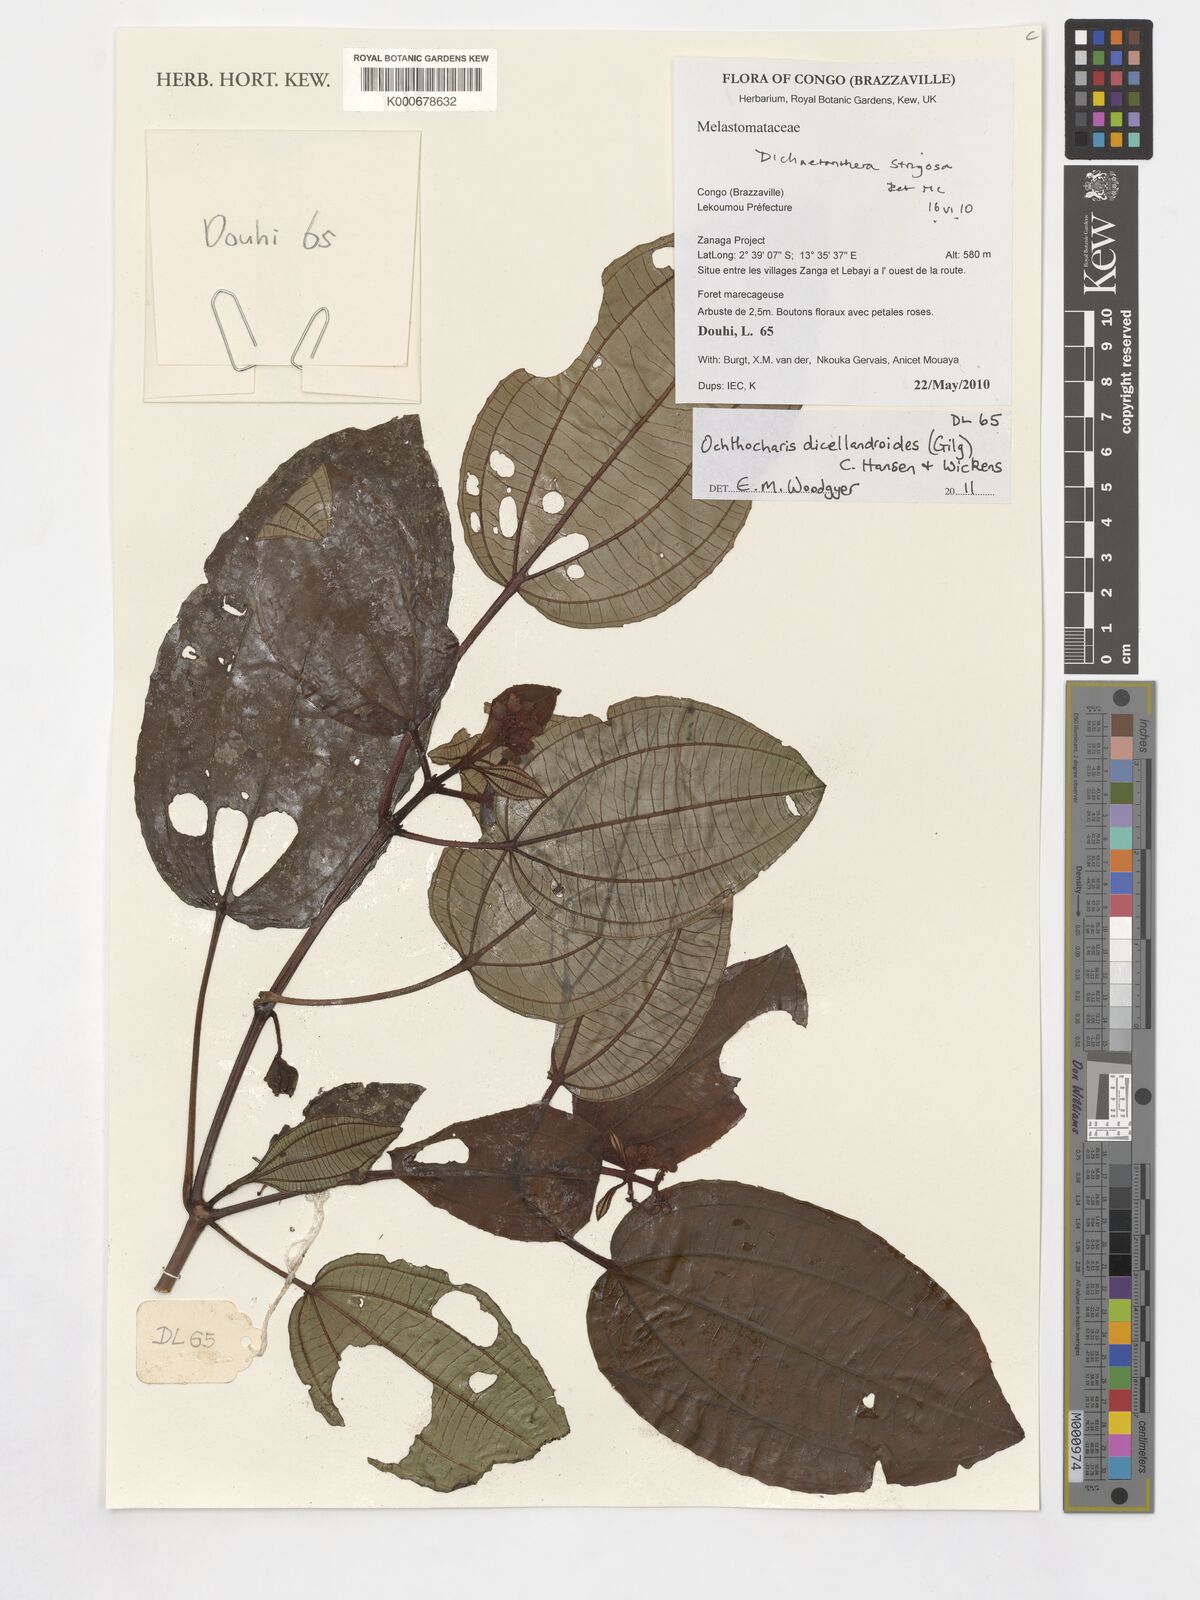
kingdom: Plantae
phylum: Tracheophyta
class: Magnoliopsida
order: Myrtales
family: Melastomataceae
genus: Ochthocharis
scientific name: Ochthocharis dicellandroides
